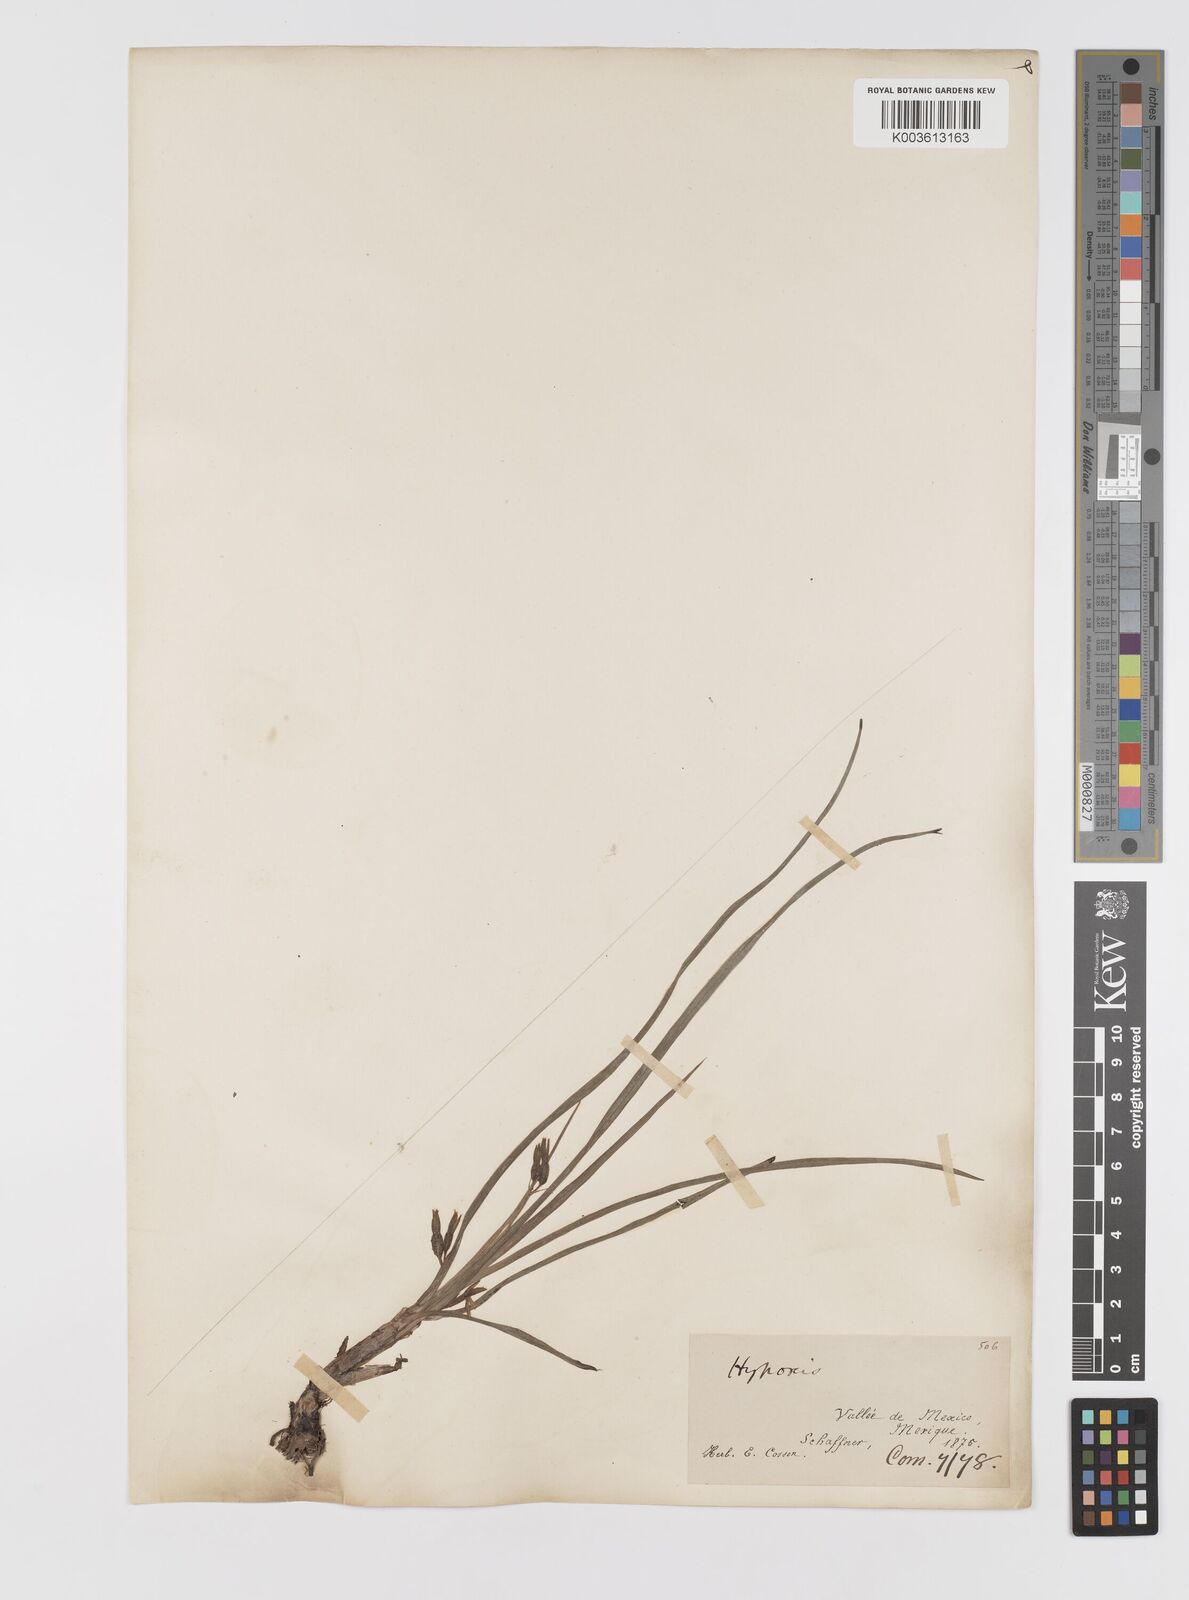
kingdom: Plantae
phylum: Tracheophyta
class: Liliopsida
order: Asparagales
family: Hypoxidaceae
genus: Hypoxis
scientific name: Hypoxis decumbens
